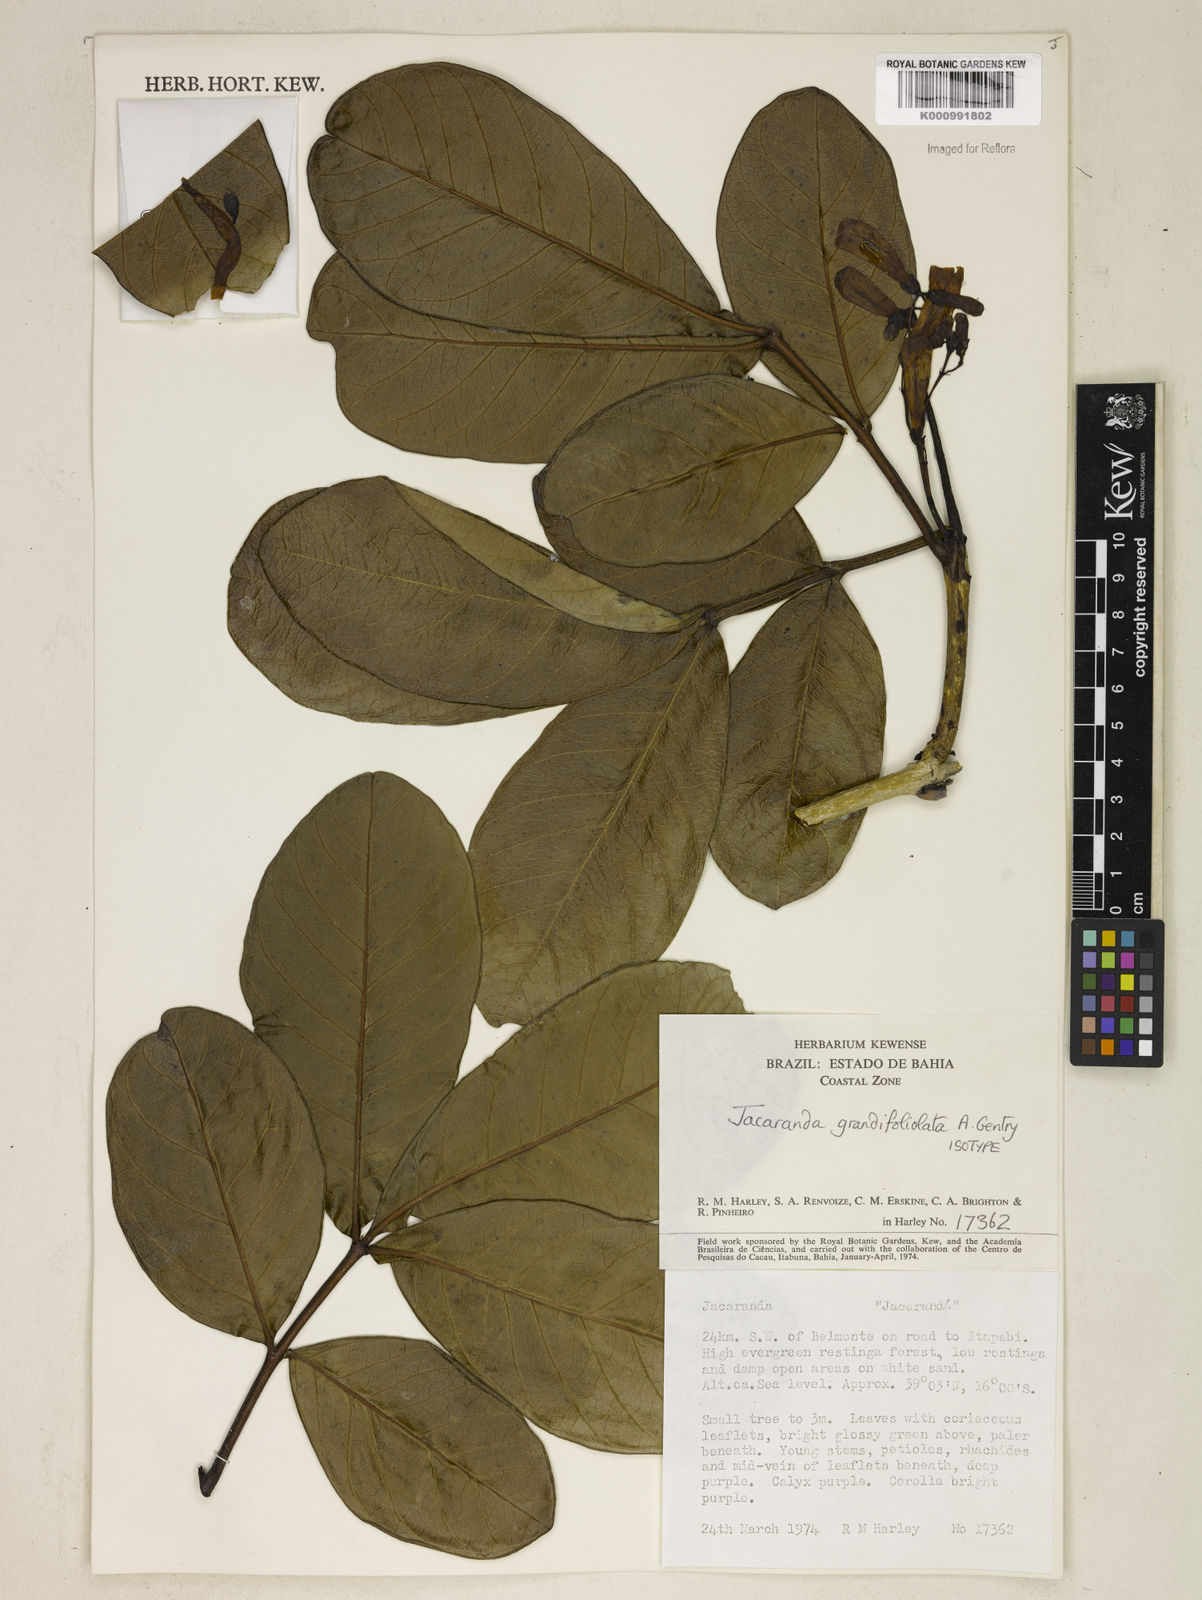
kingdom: Plantae
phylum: Tracheophyta
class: Magnoliopsida
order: Lamiales
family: Bignoniaceae
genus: Jacaranda
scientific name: Jacaranda grandifoliolata
